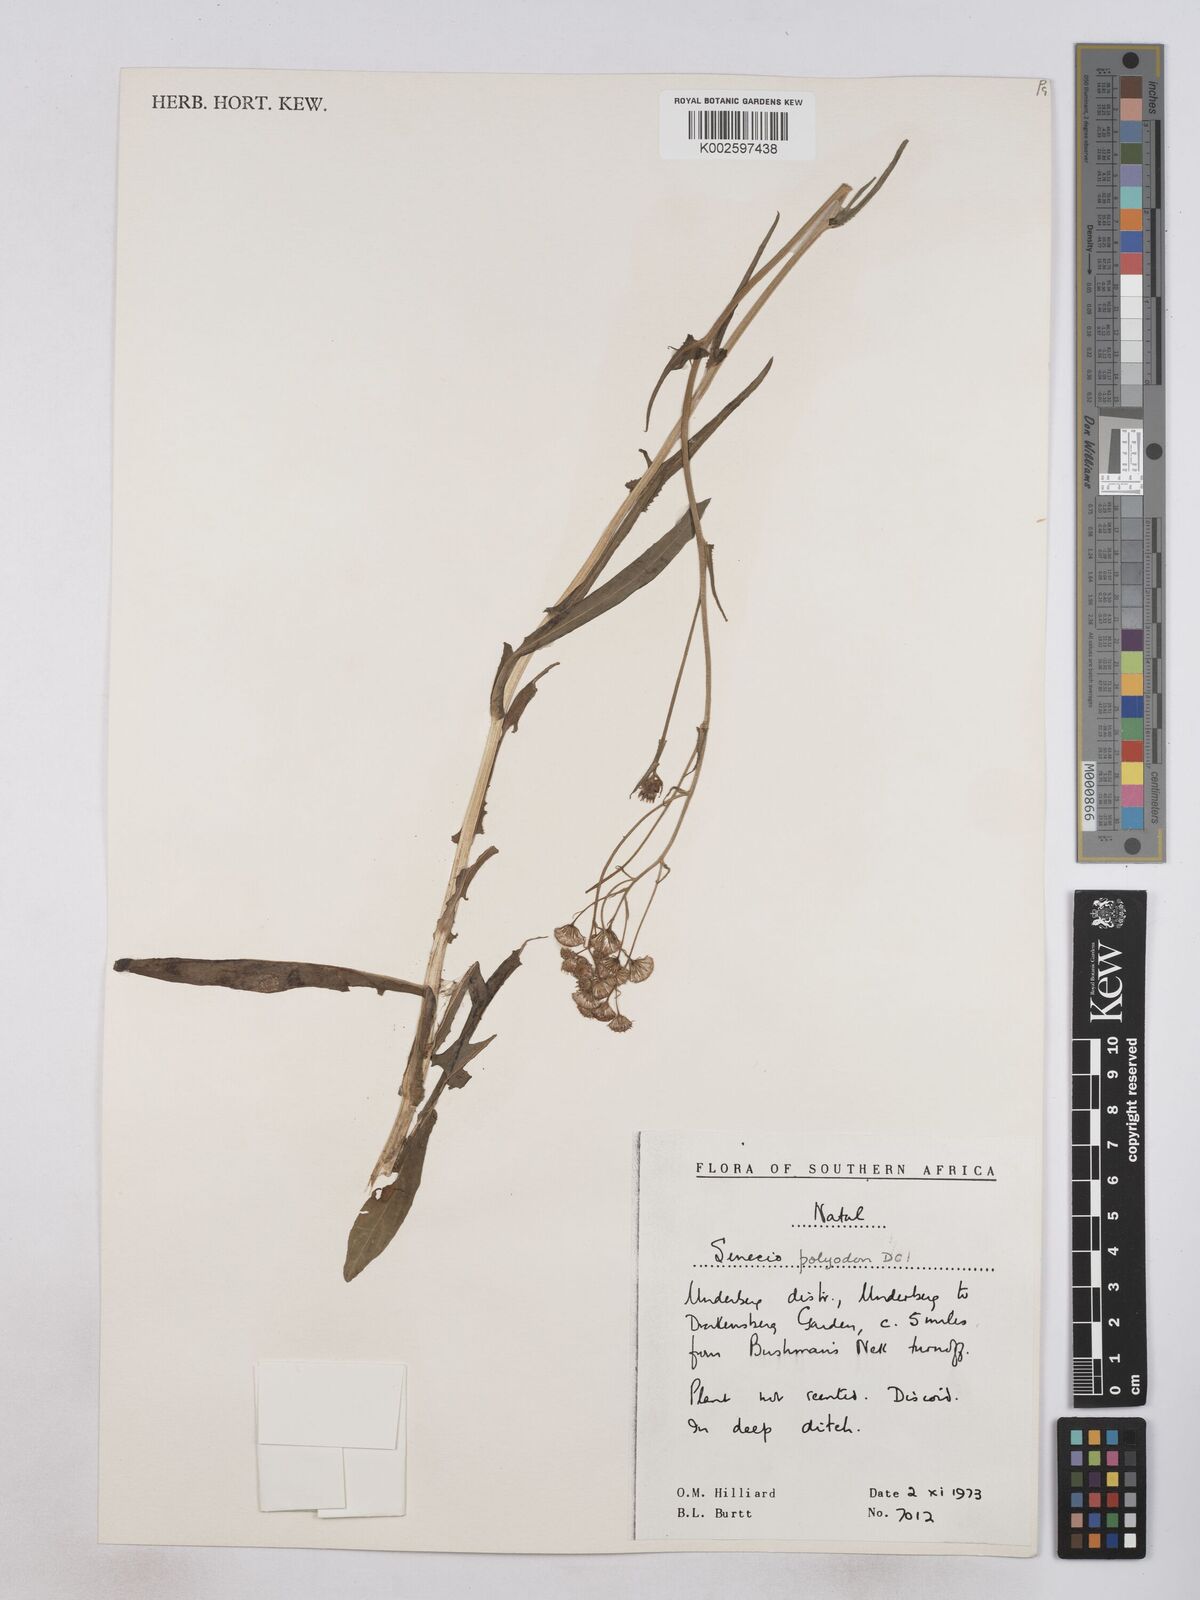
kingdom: Plantae
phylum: Tracheophyta
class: Magnoliopsida
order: Asterales
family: Asteraceae
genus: Senecio
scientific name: Senecio polyodon
